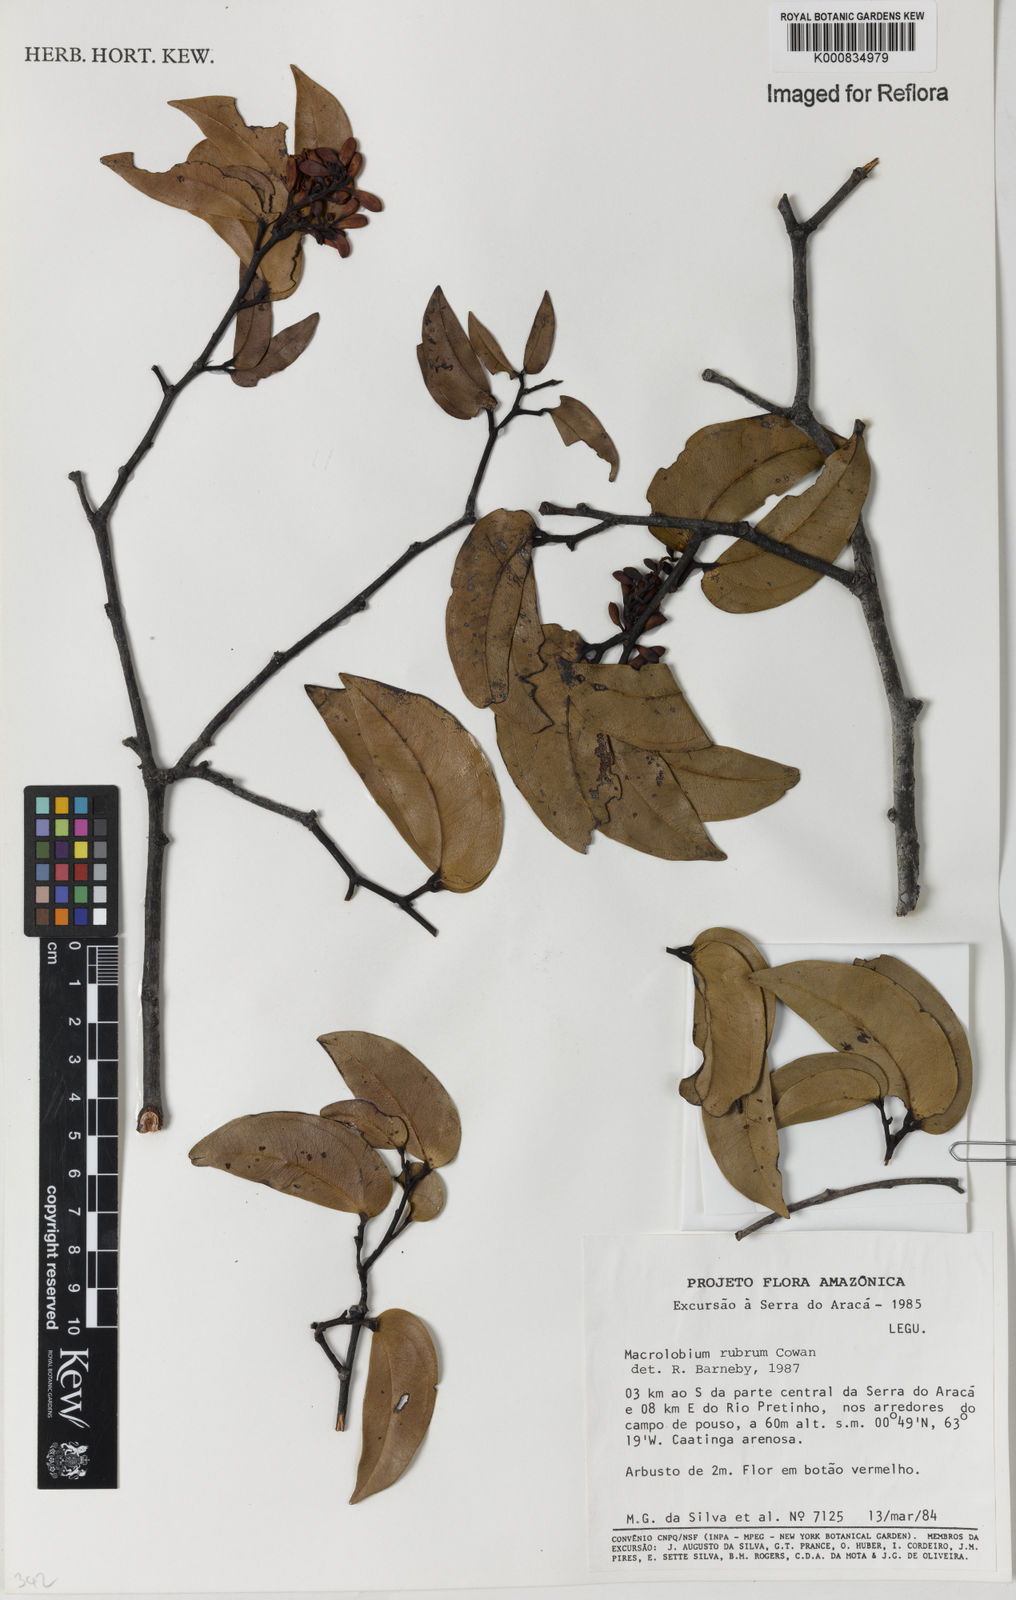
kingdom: Plantae
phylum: Tracheophyta
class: Magnoliopsida
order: Fabales
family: Fabaceae
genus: Macrolobium
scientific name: Macrolobium rubrum
